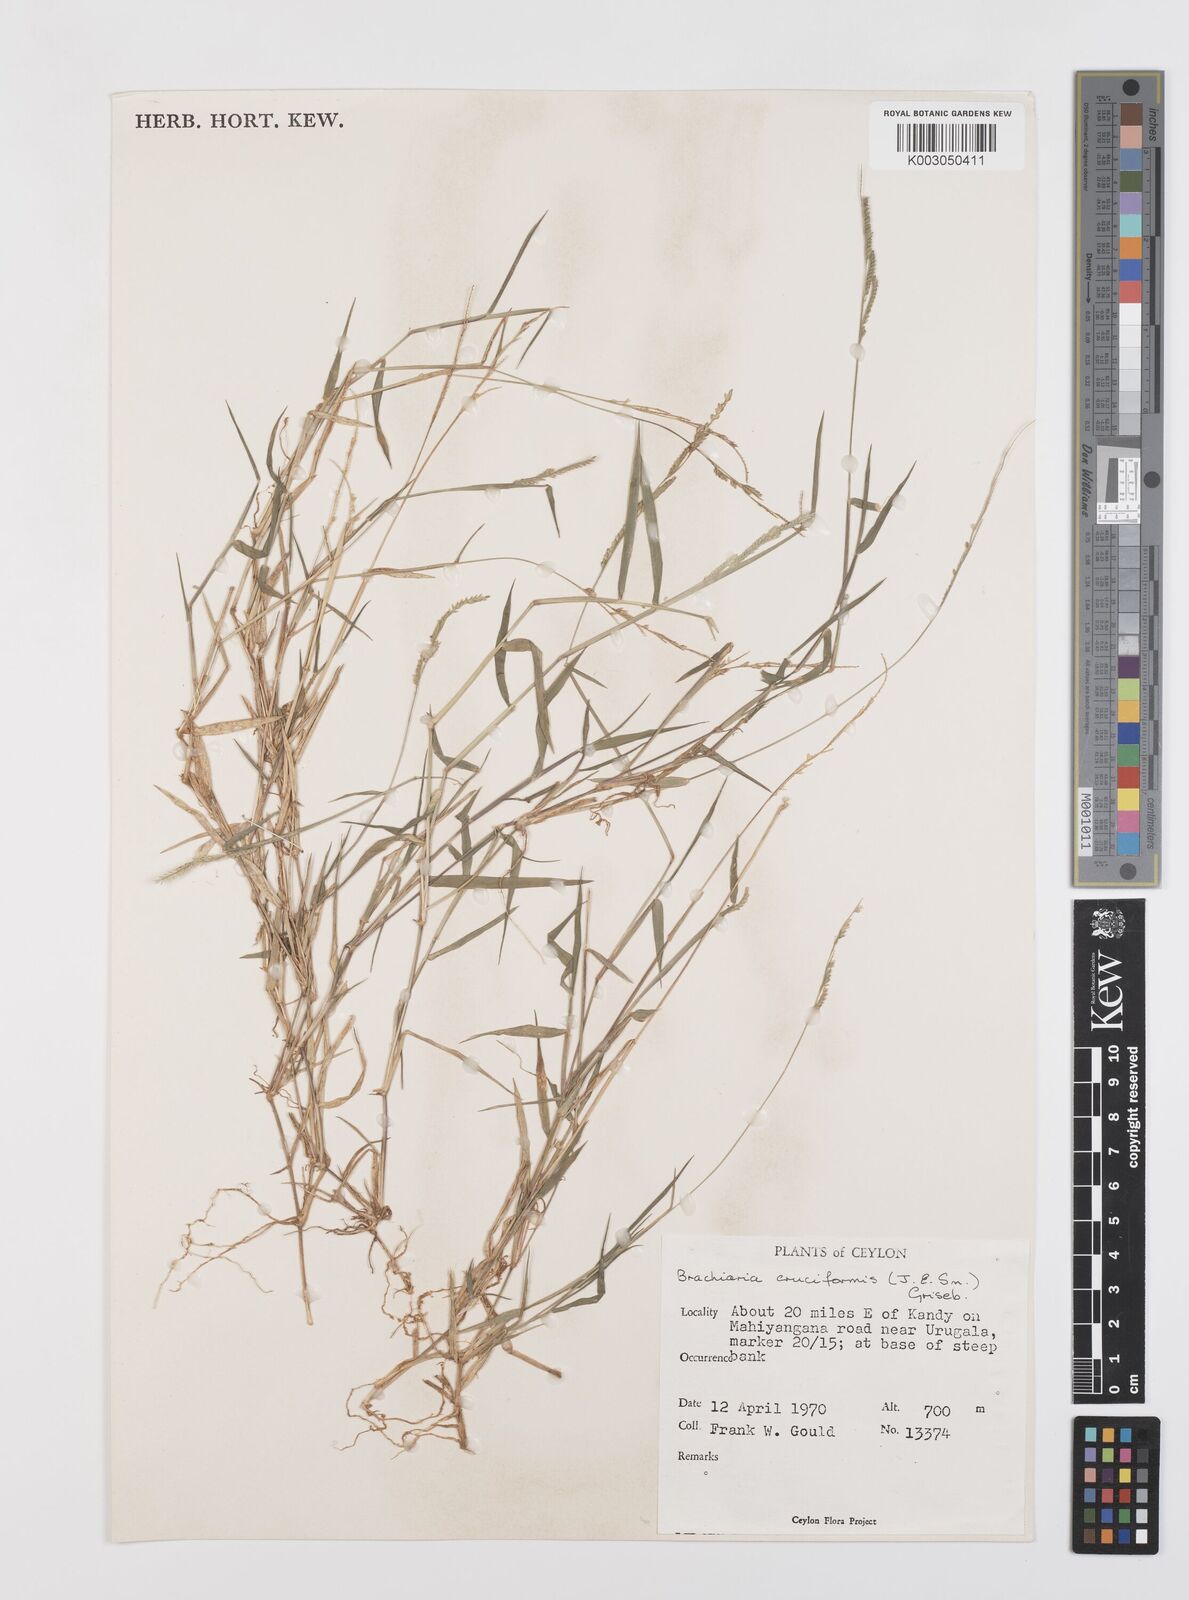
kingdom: Plantae
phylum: Tracheophyta
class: Liliopsida
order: Poales
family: Poaceae
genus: Moorochloa
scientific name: Moorochloa eruciformis
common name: Sweet signalgrass
